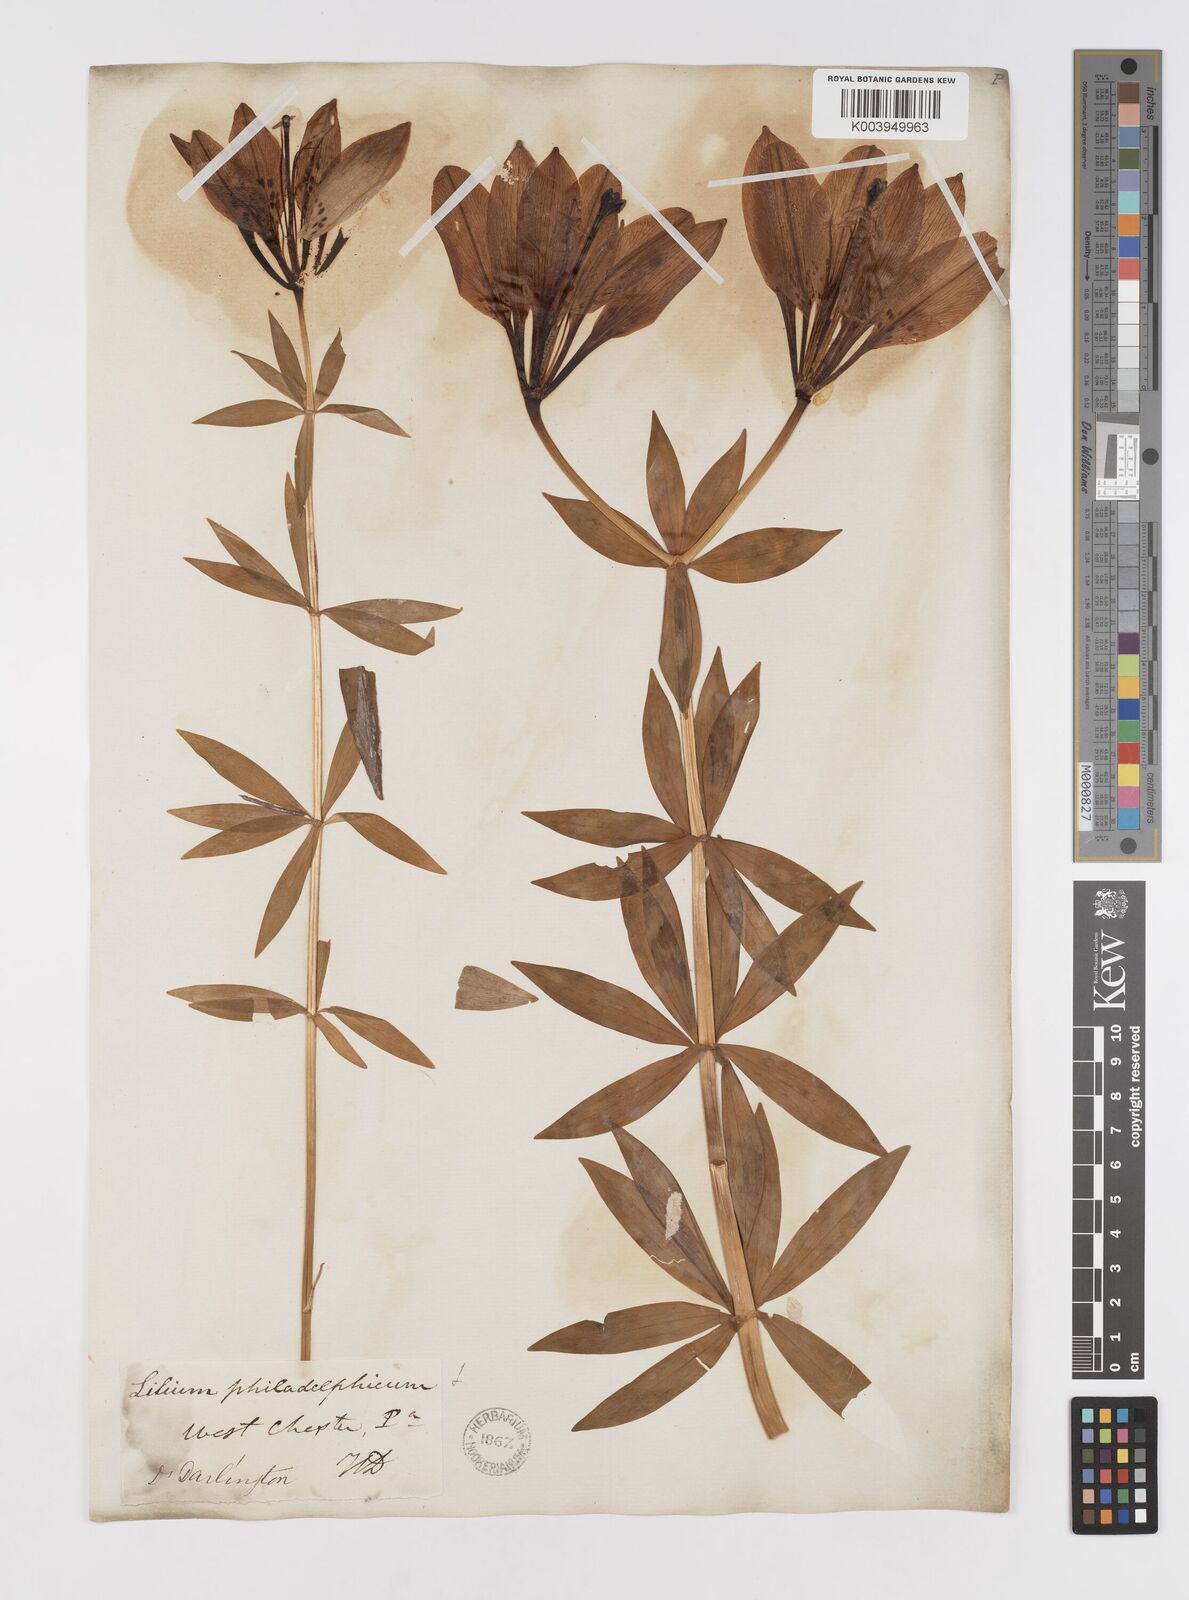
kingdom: Plantae
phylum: Tracheophyta
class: Liliopsida
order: Liliales
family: Liliaceae
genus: Lilium
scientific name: Lilium philadelphicum
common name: Red lily
